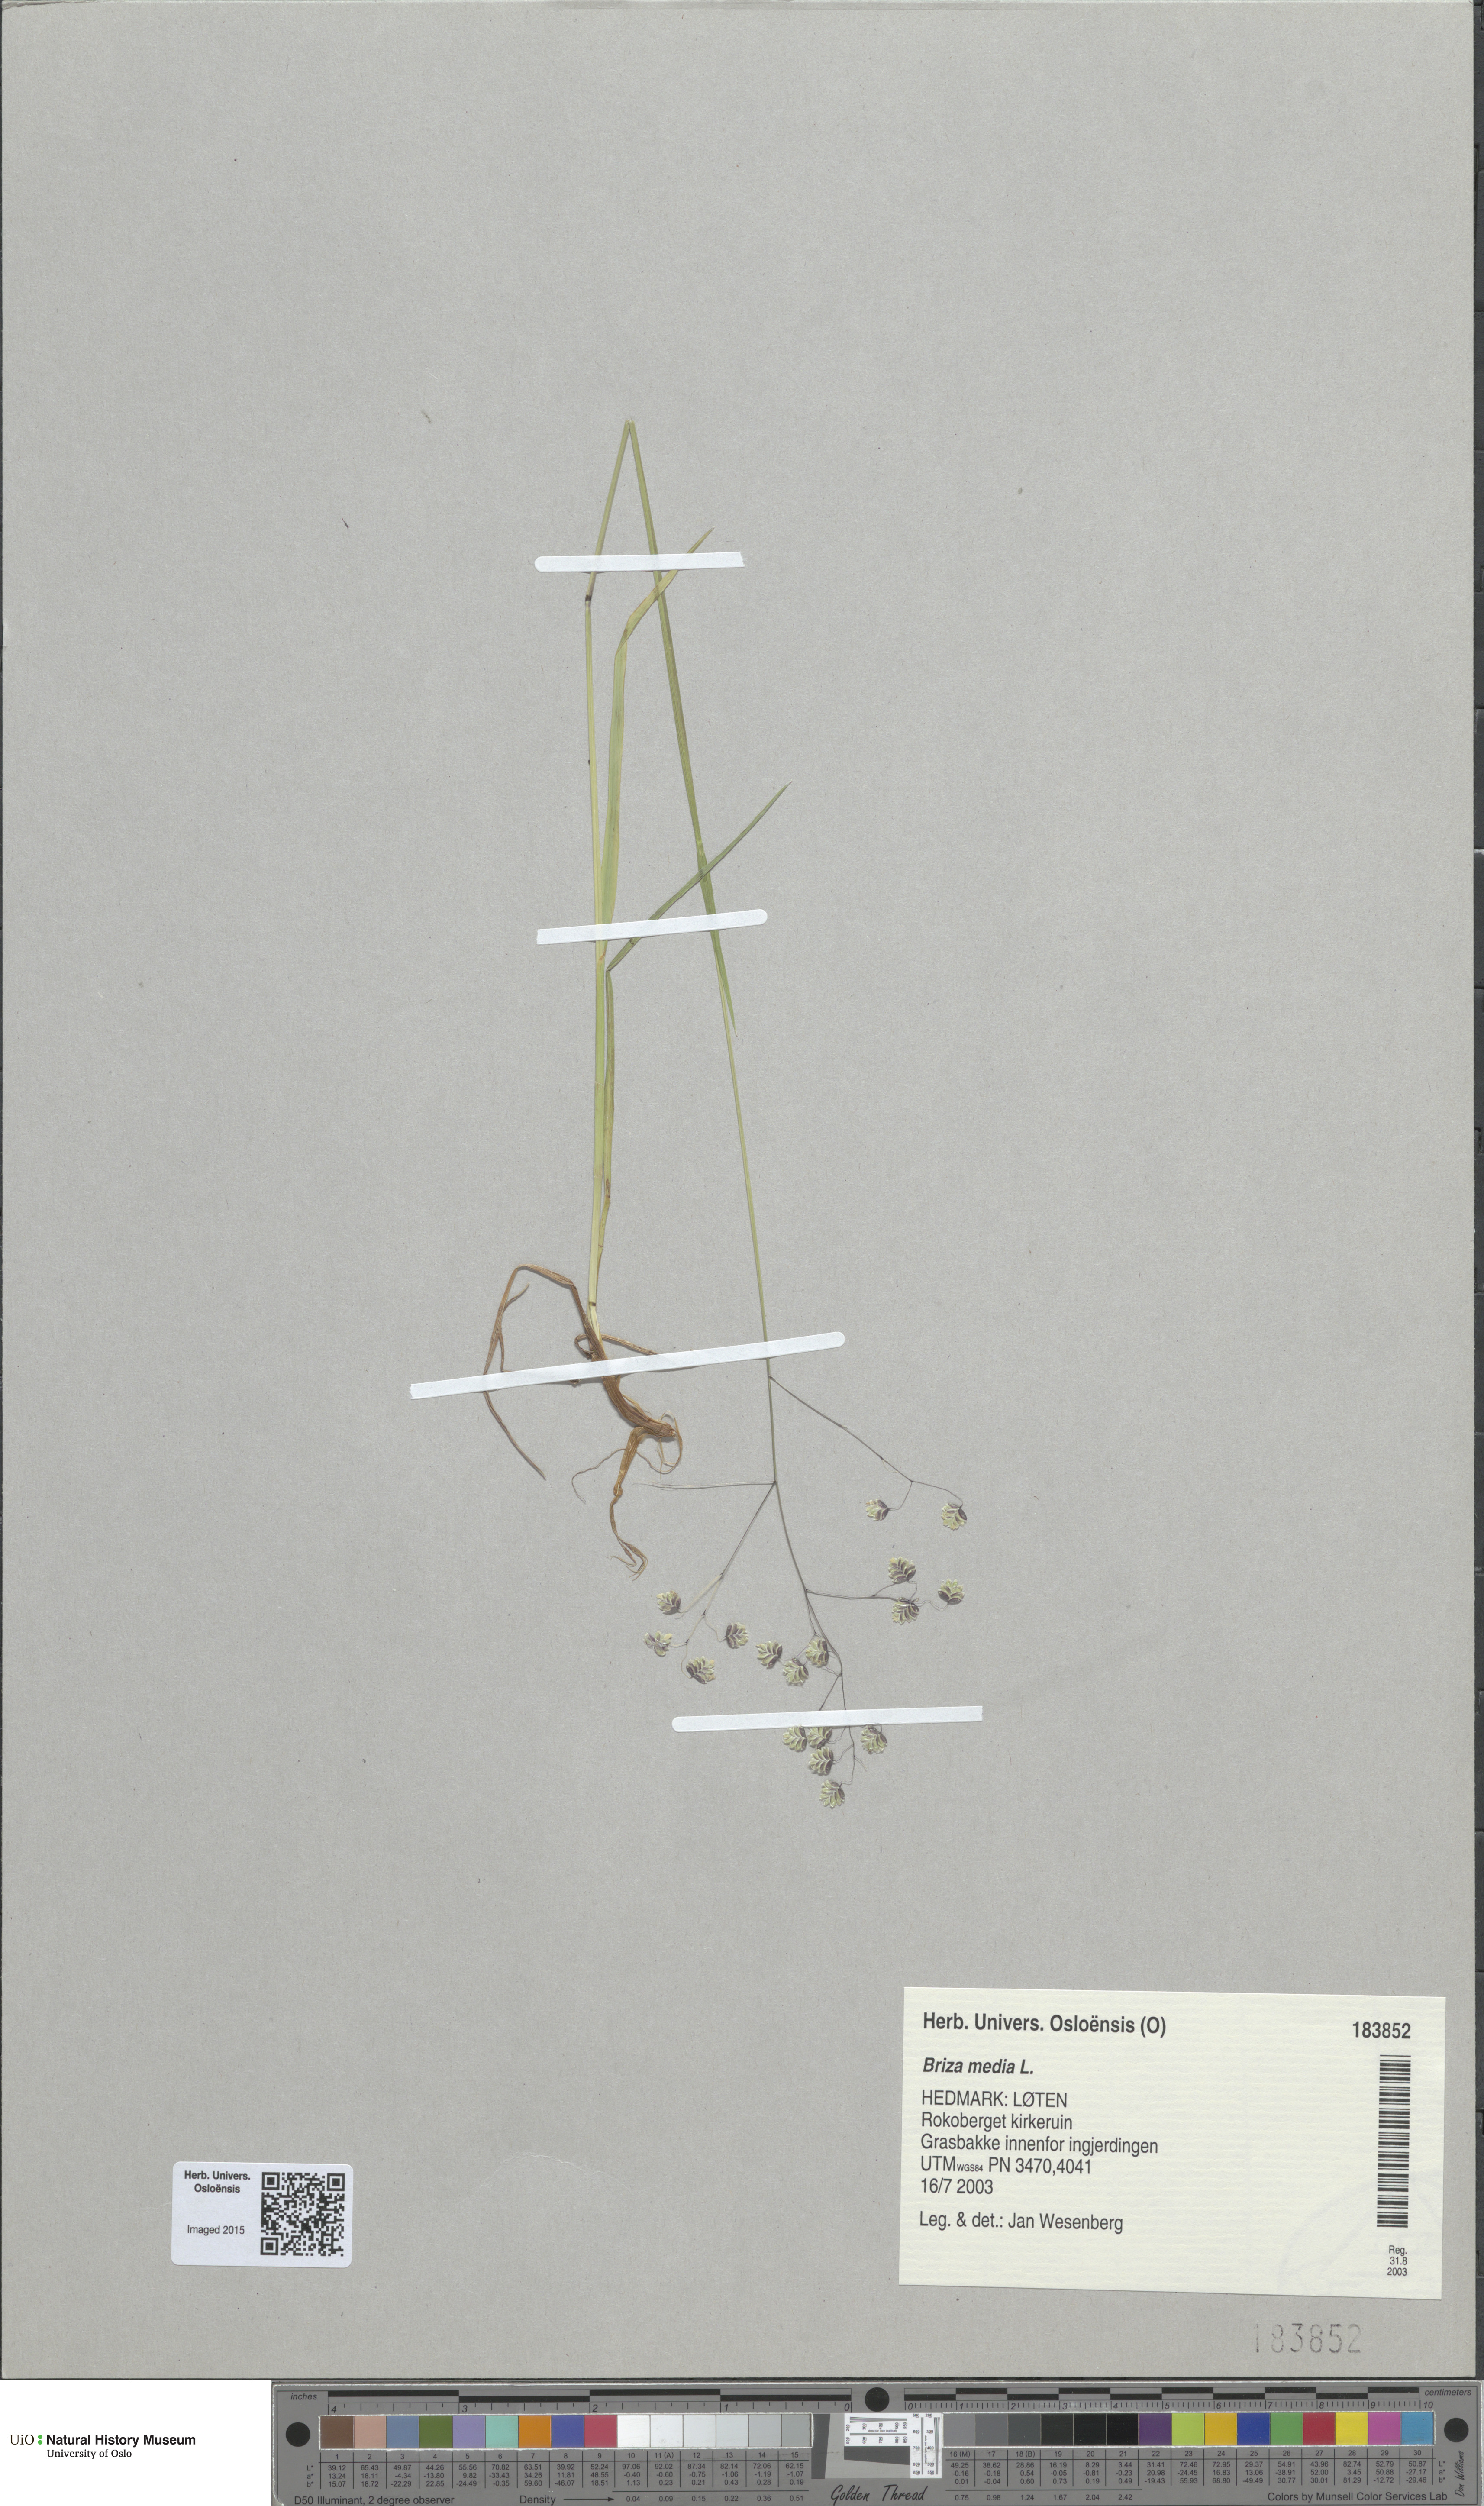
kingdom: Plantae
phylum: Tracheophyta
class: Liliopsida
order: Poales
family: Poaceae
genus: Briza
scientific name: Briza media
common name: Quaking grass
